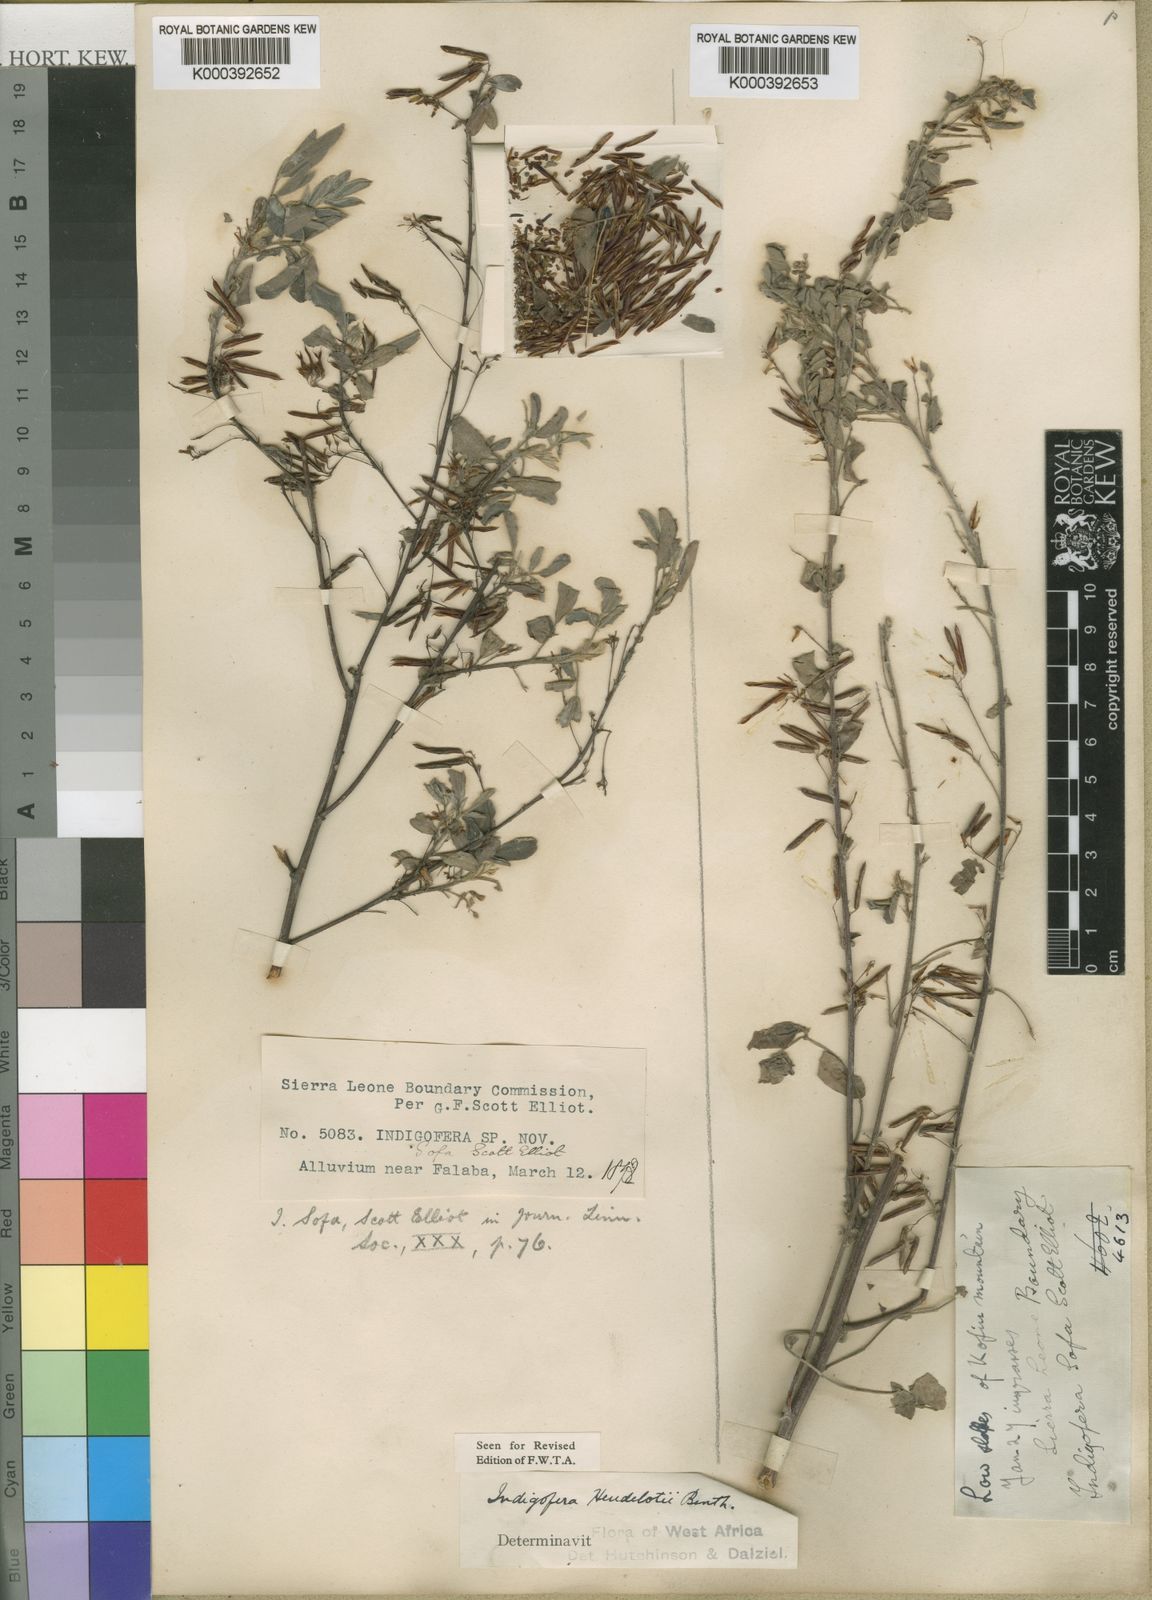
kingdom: Plantae
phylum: Tracheophyta
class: Magnoliopsida
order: Fabales
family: Fabaceae
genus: Indigofera
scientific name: Indigofera heudelotii
